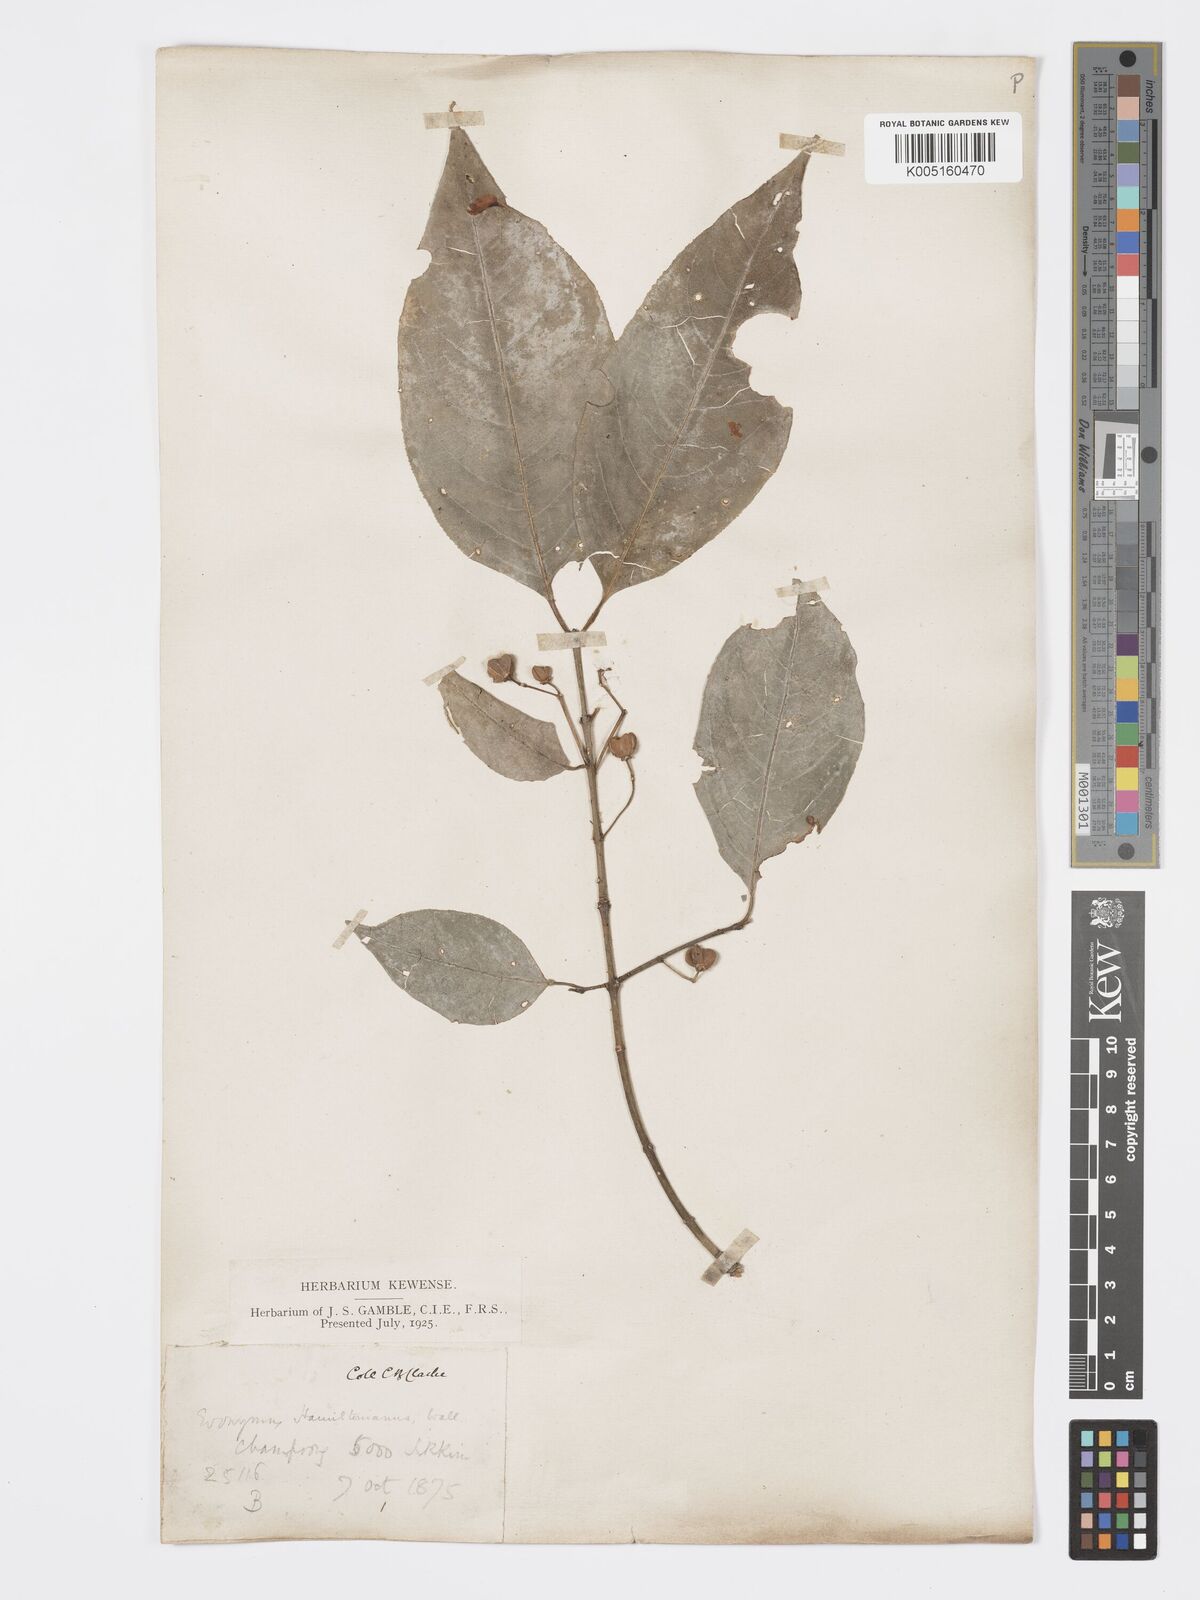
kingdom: Plantae
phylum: Tracheophyta
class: Magnoliopsida
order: Celastrales
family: Celastraceae
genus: Euonymus
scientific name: Euonymus
